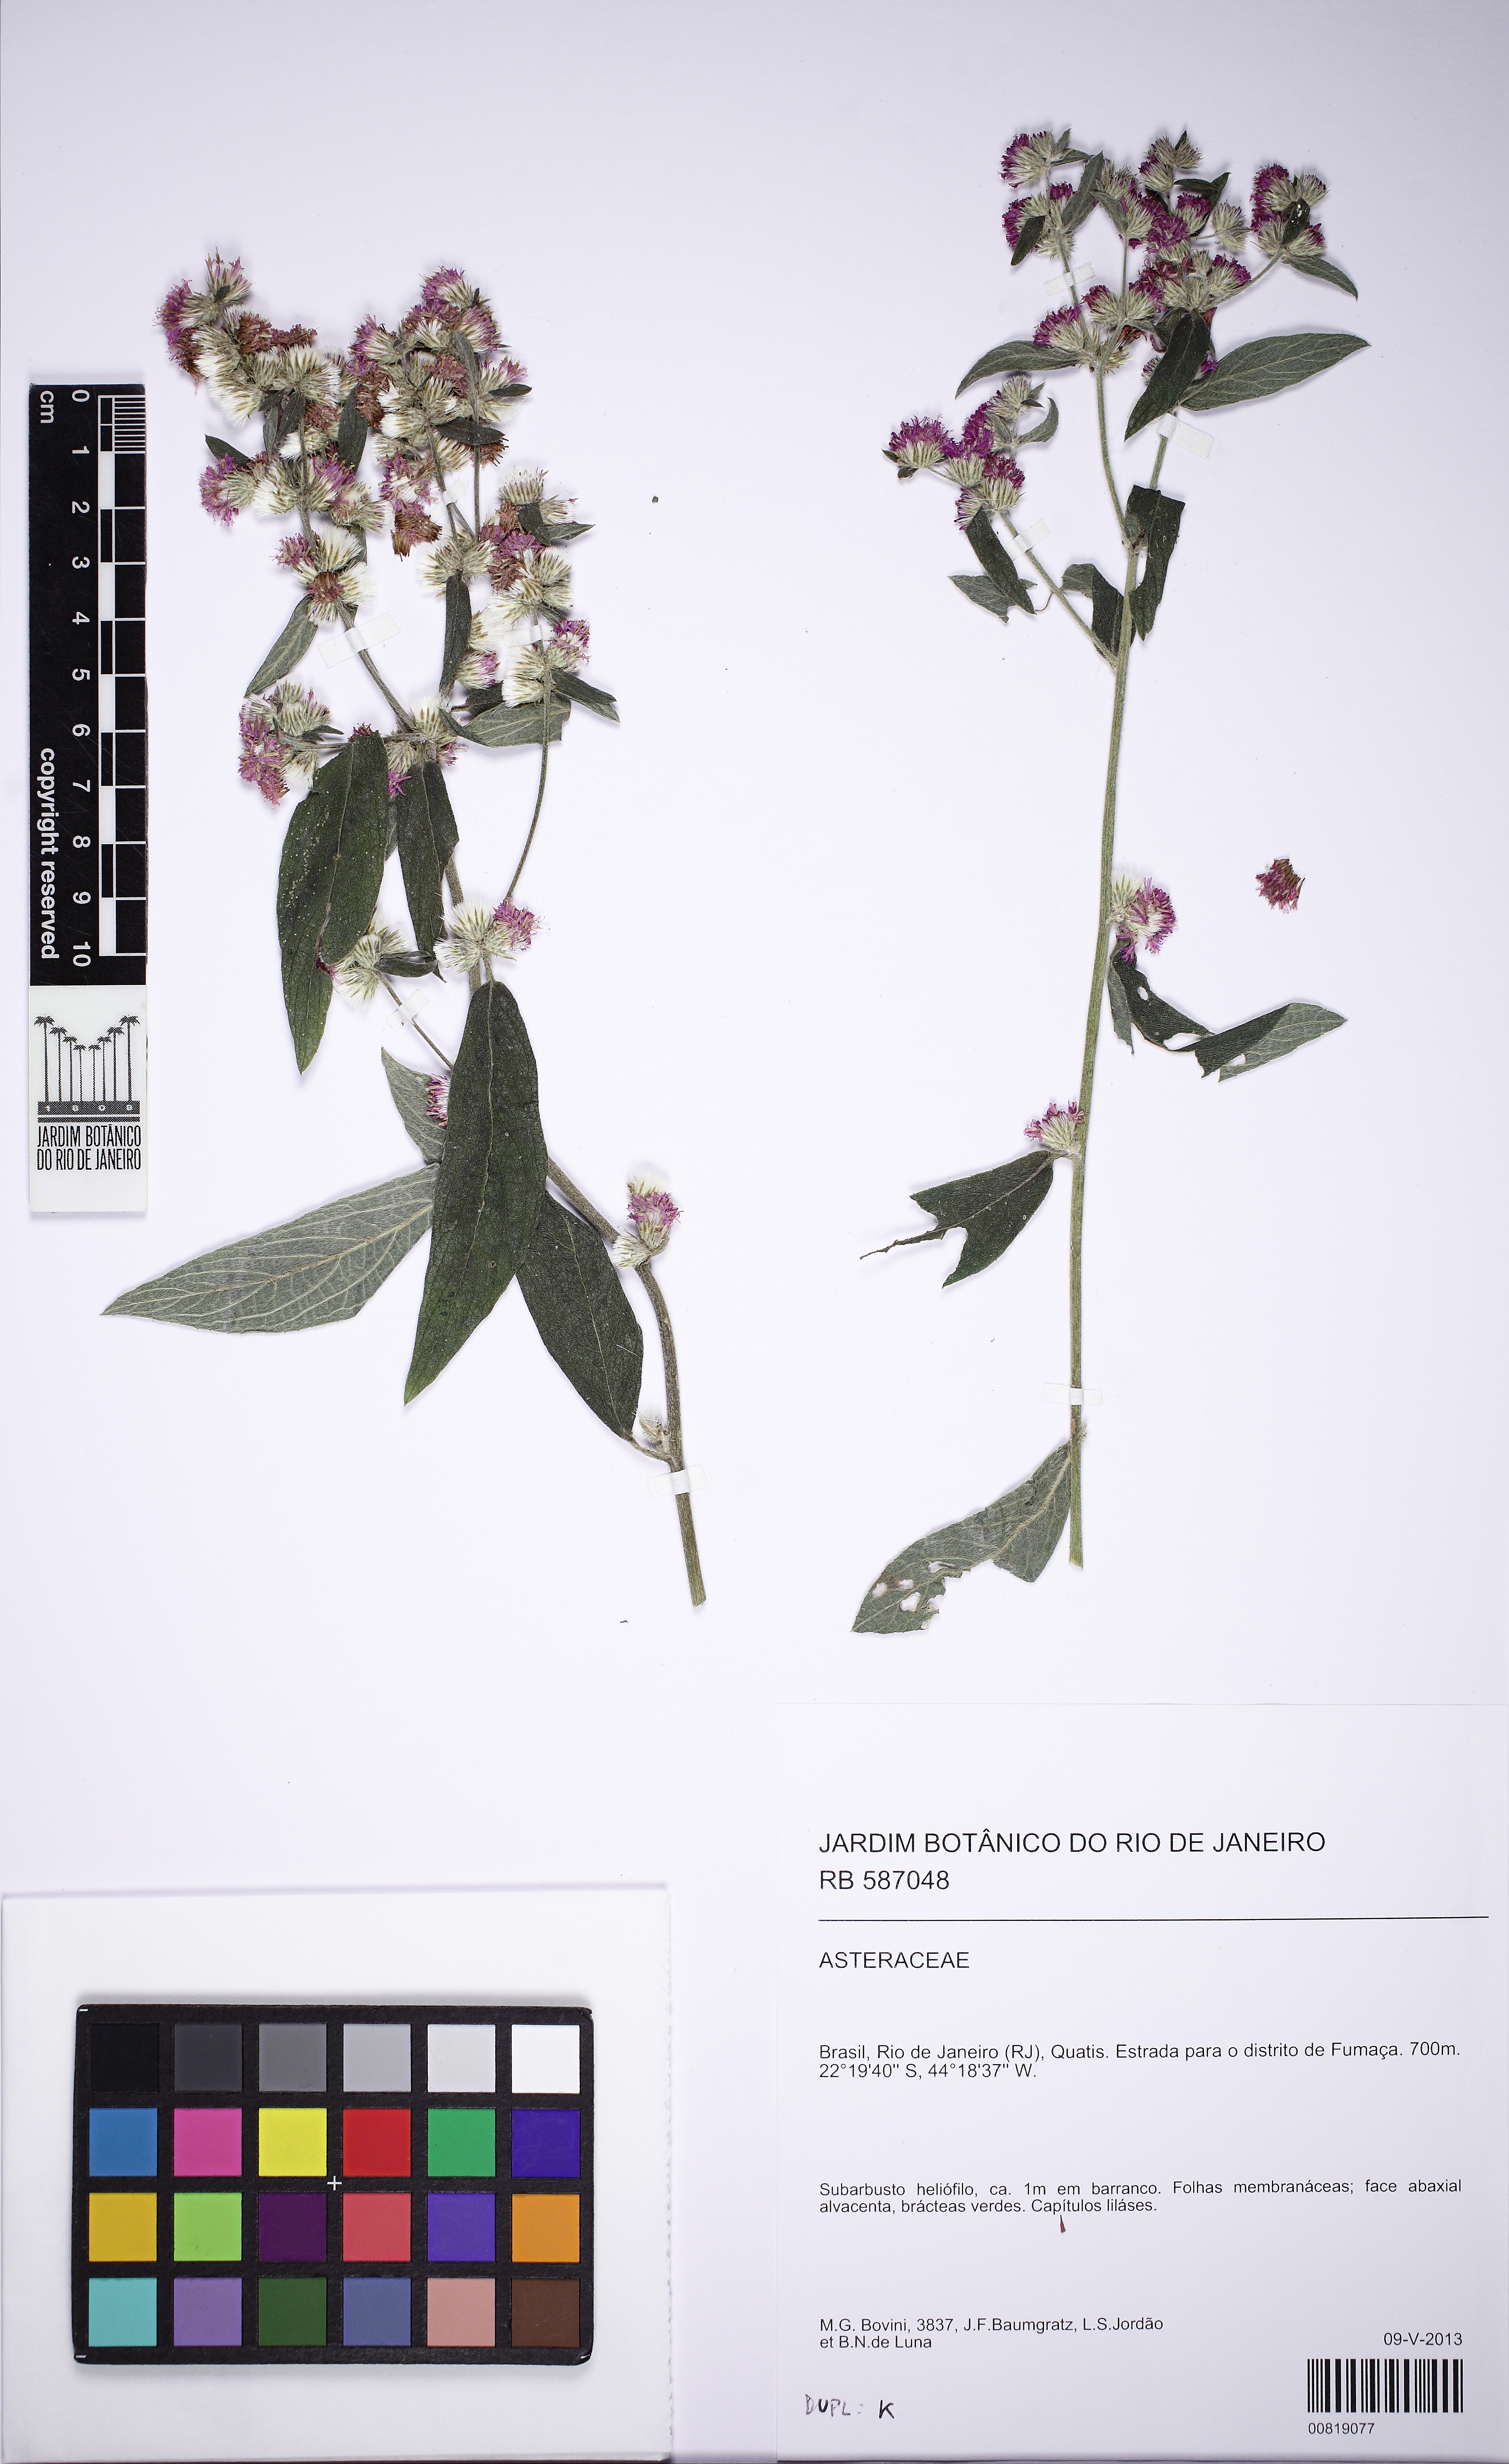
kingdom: Plantae
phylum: Tracheophyta
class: Magnoliopsida
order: Asterales
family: Asteraceae
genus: Lepidaploa
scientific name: Lepidaploa
